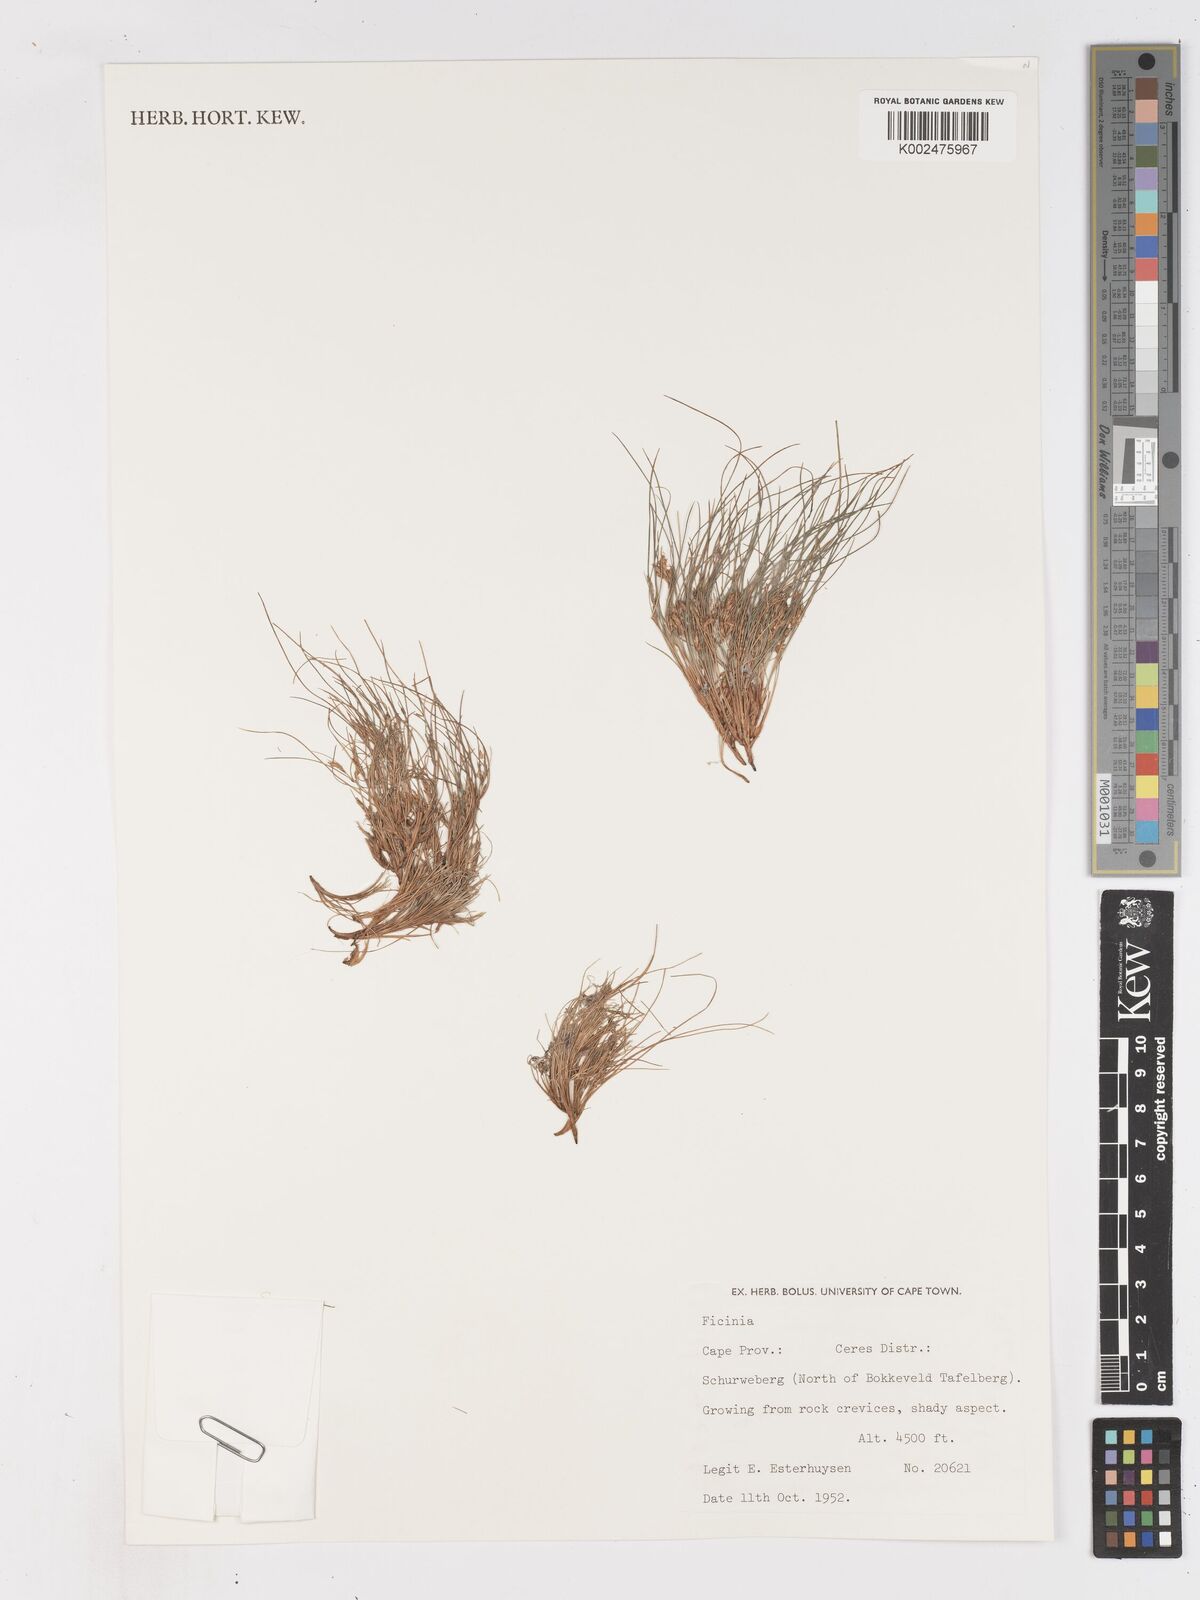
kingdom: Plantae
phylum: Tracheophyta
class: Liliopsida
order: Poales
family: Cyperaceae
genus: Ficinia
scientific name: Ficinia esterhuyseniae
